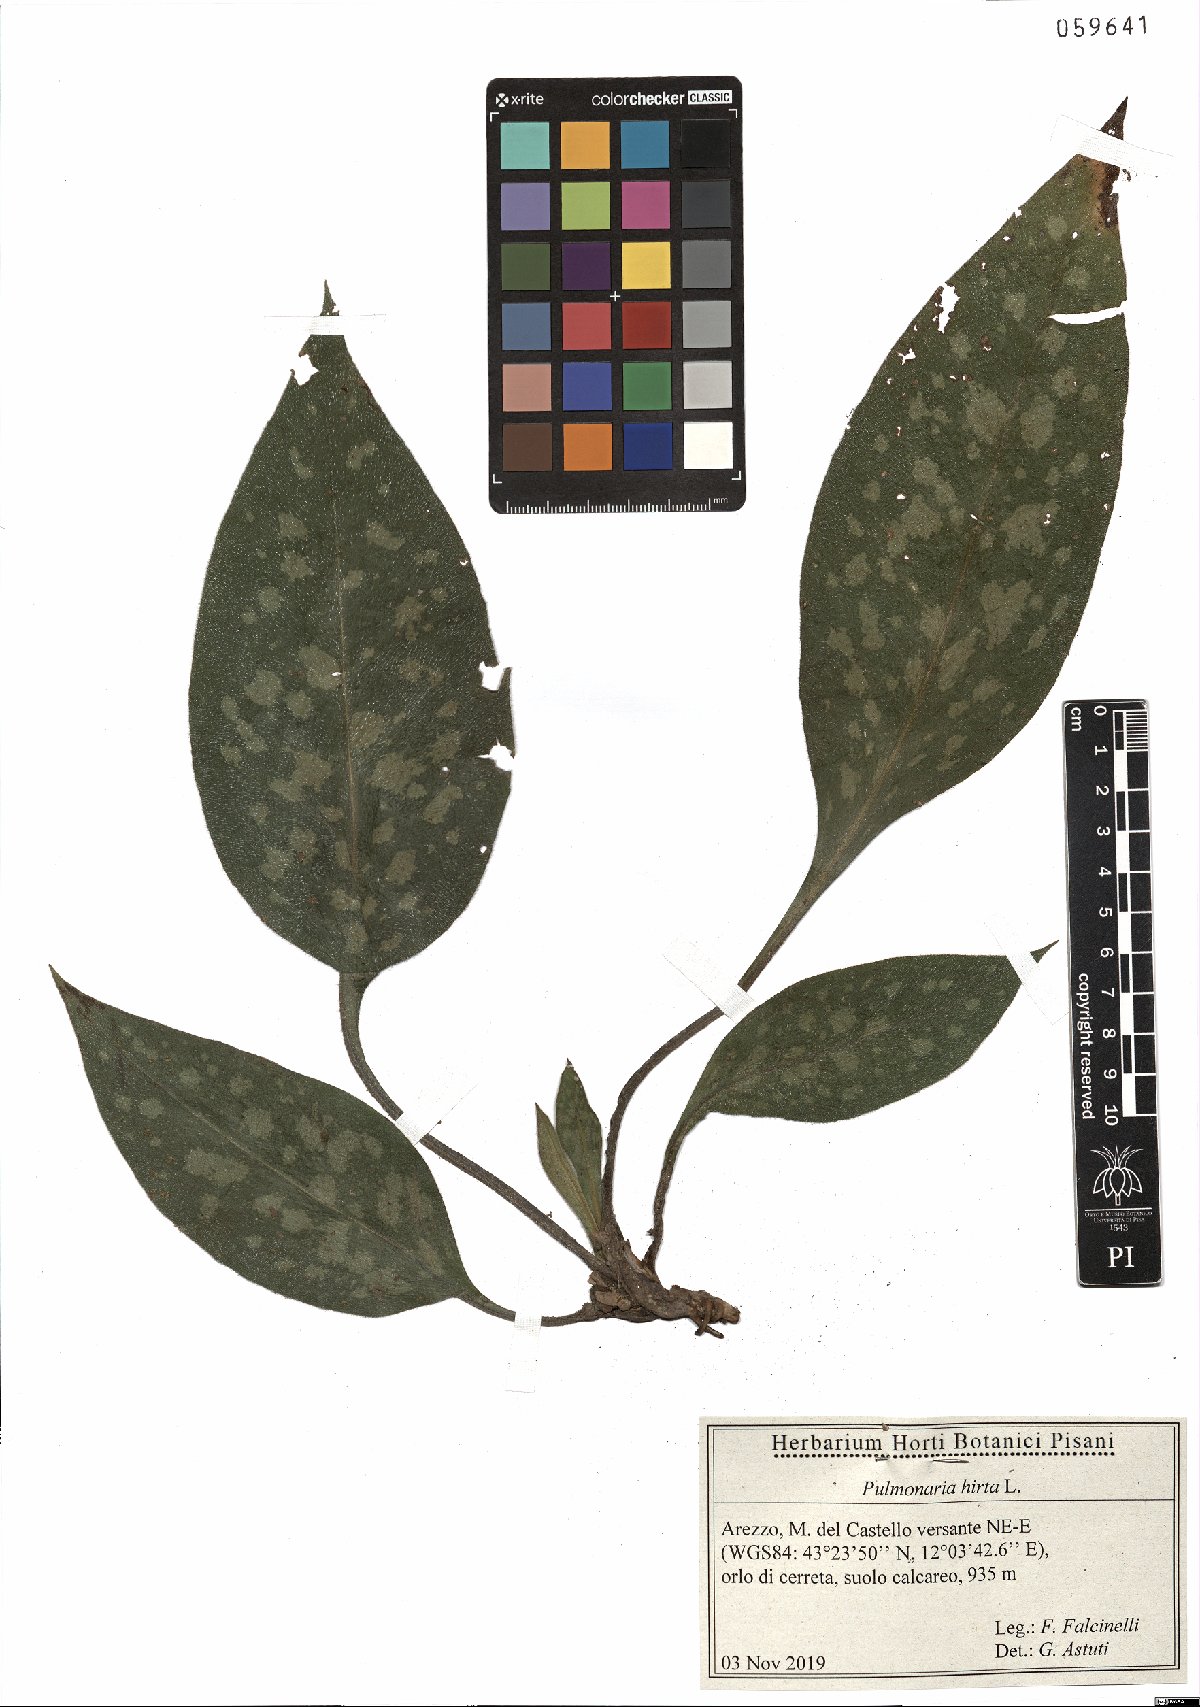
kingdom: Plantae
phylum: Tracheophyta
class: Magnoliopsida
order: Boraginales
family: Boraginaceae
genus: Pulmonaria
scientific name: Pulmonaria hirta
